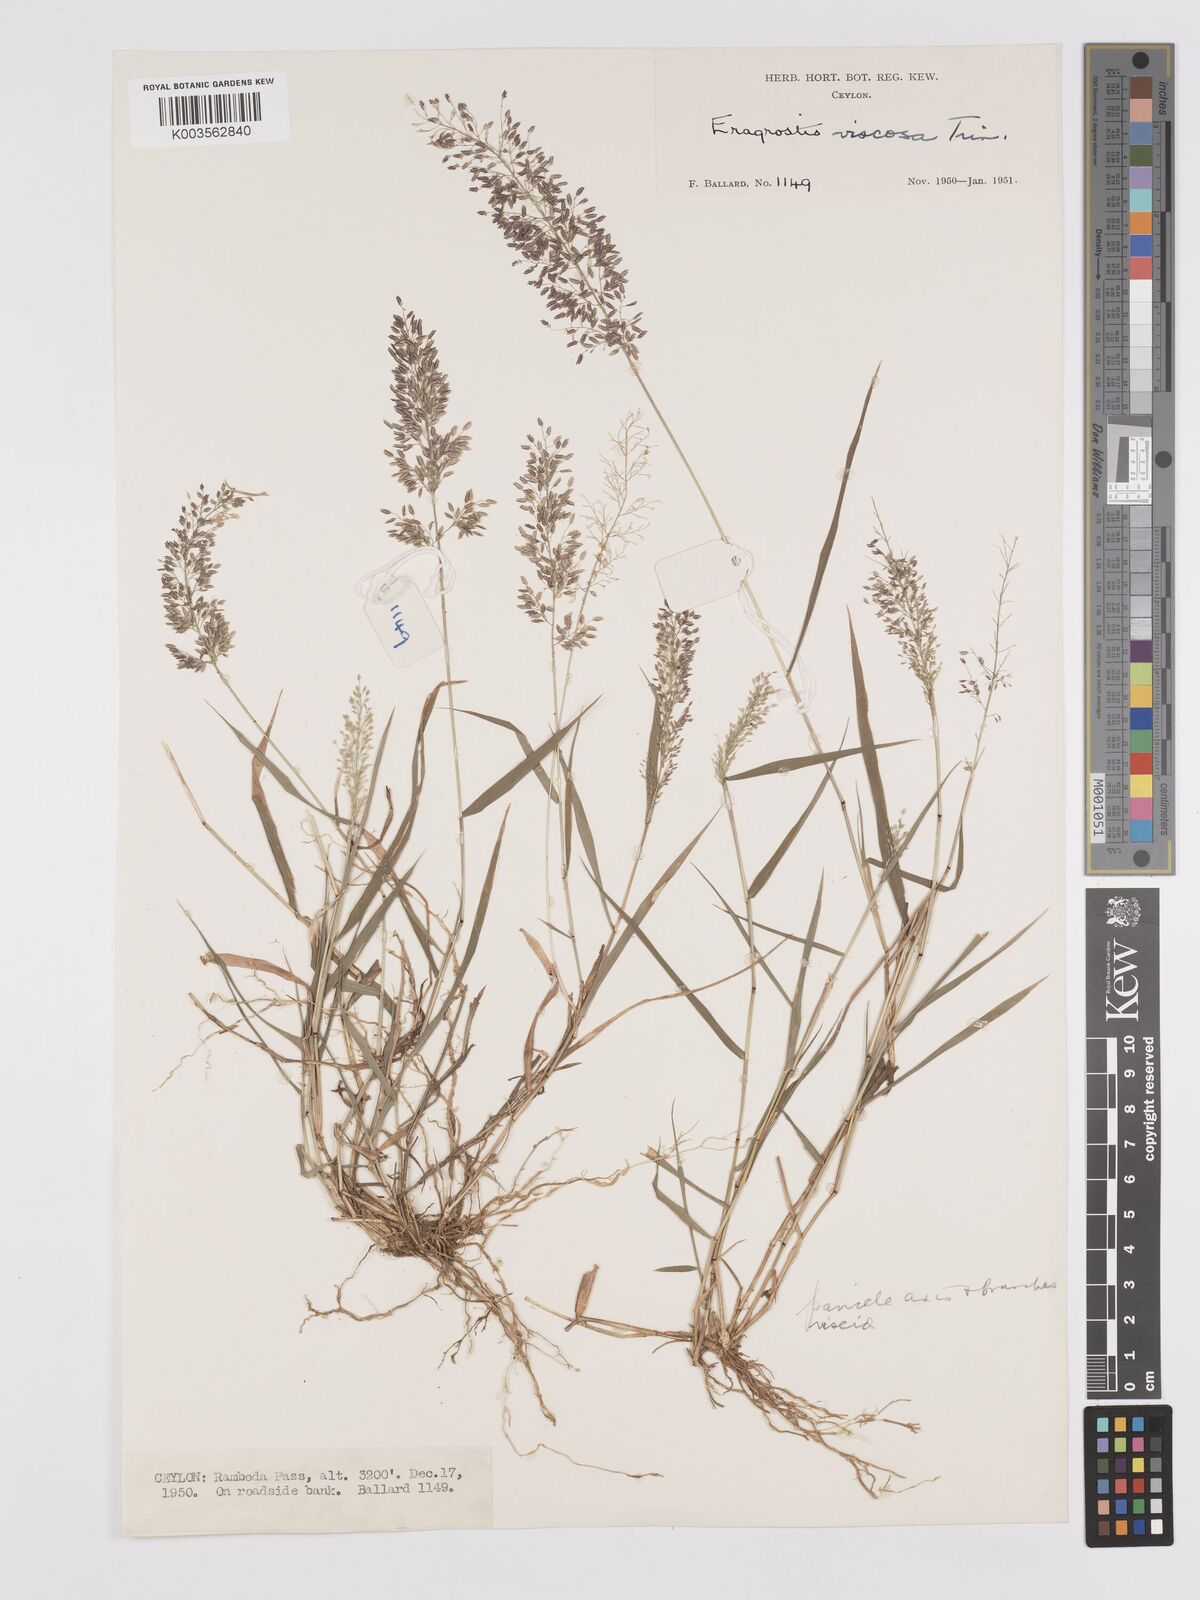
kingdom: Plantae
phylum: Tracheophyta
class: Liliopsida
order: Poales
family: Poaceae
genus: Eragrostis
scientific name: Eragrostis viscosa
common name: Sticky love grass
